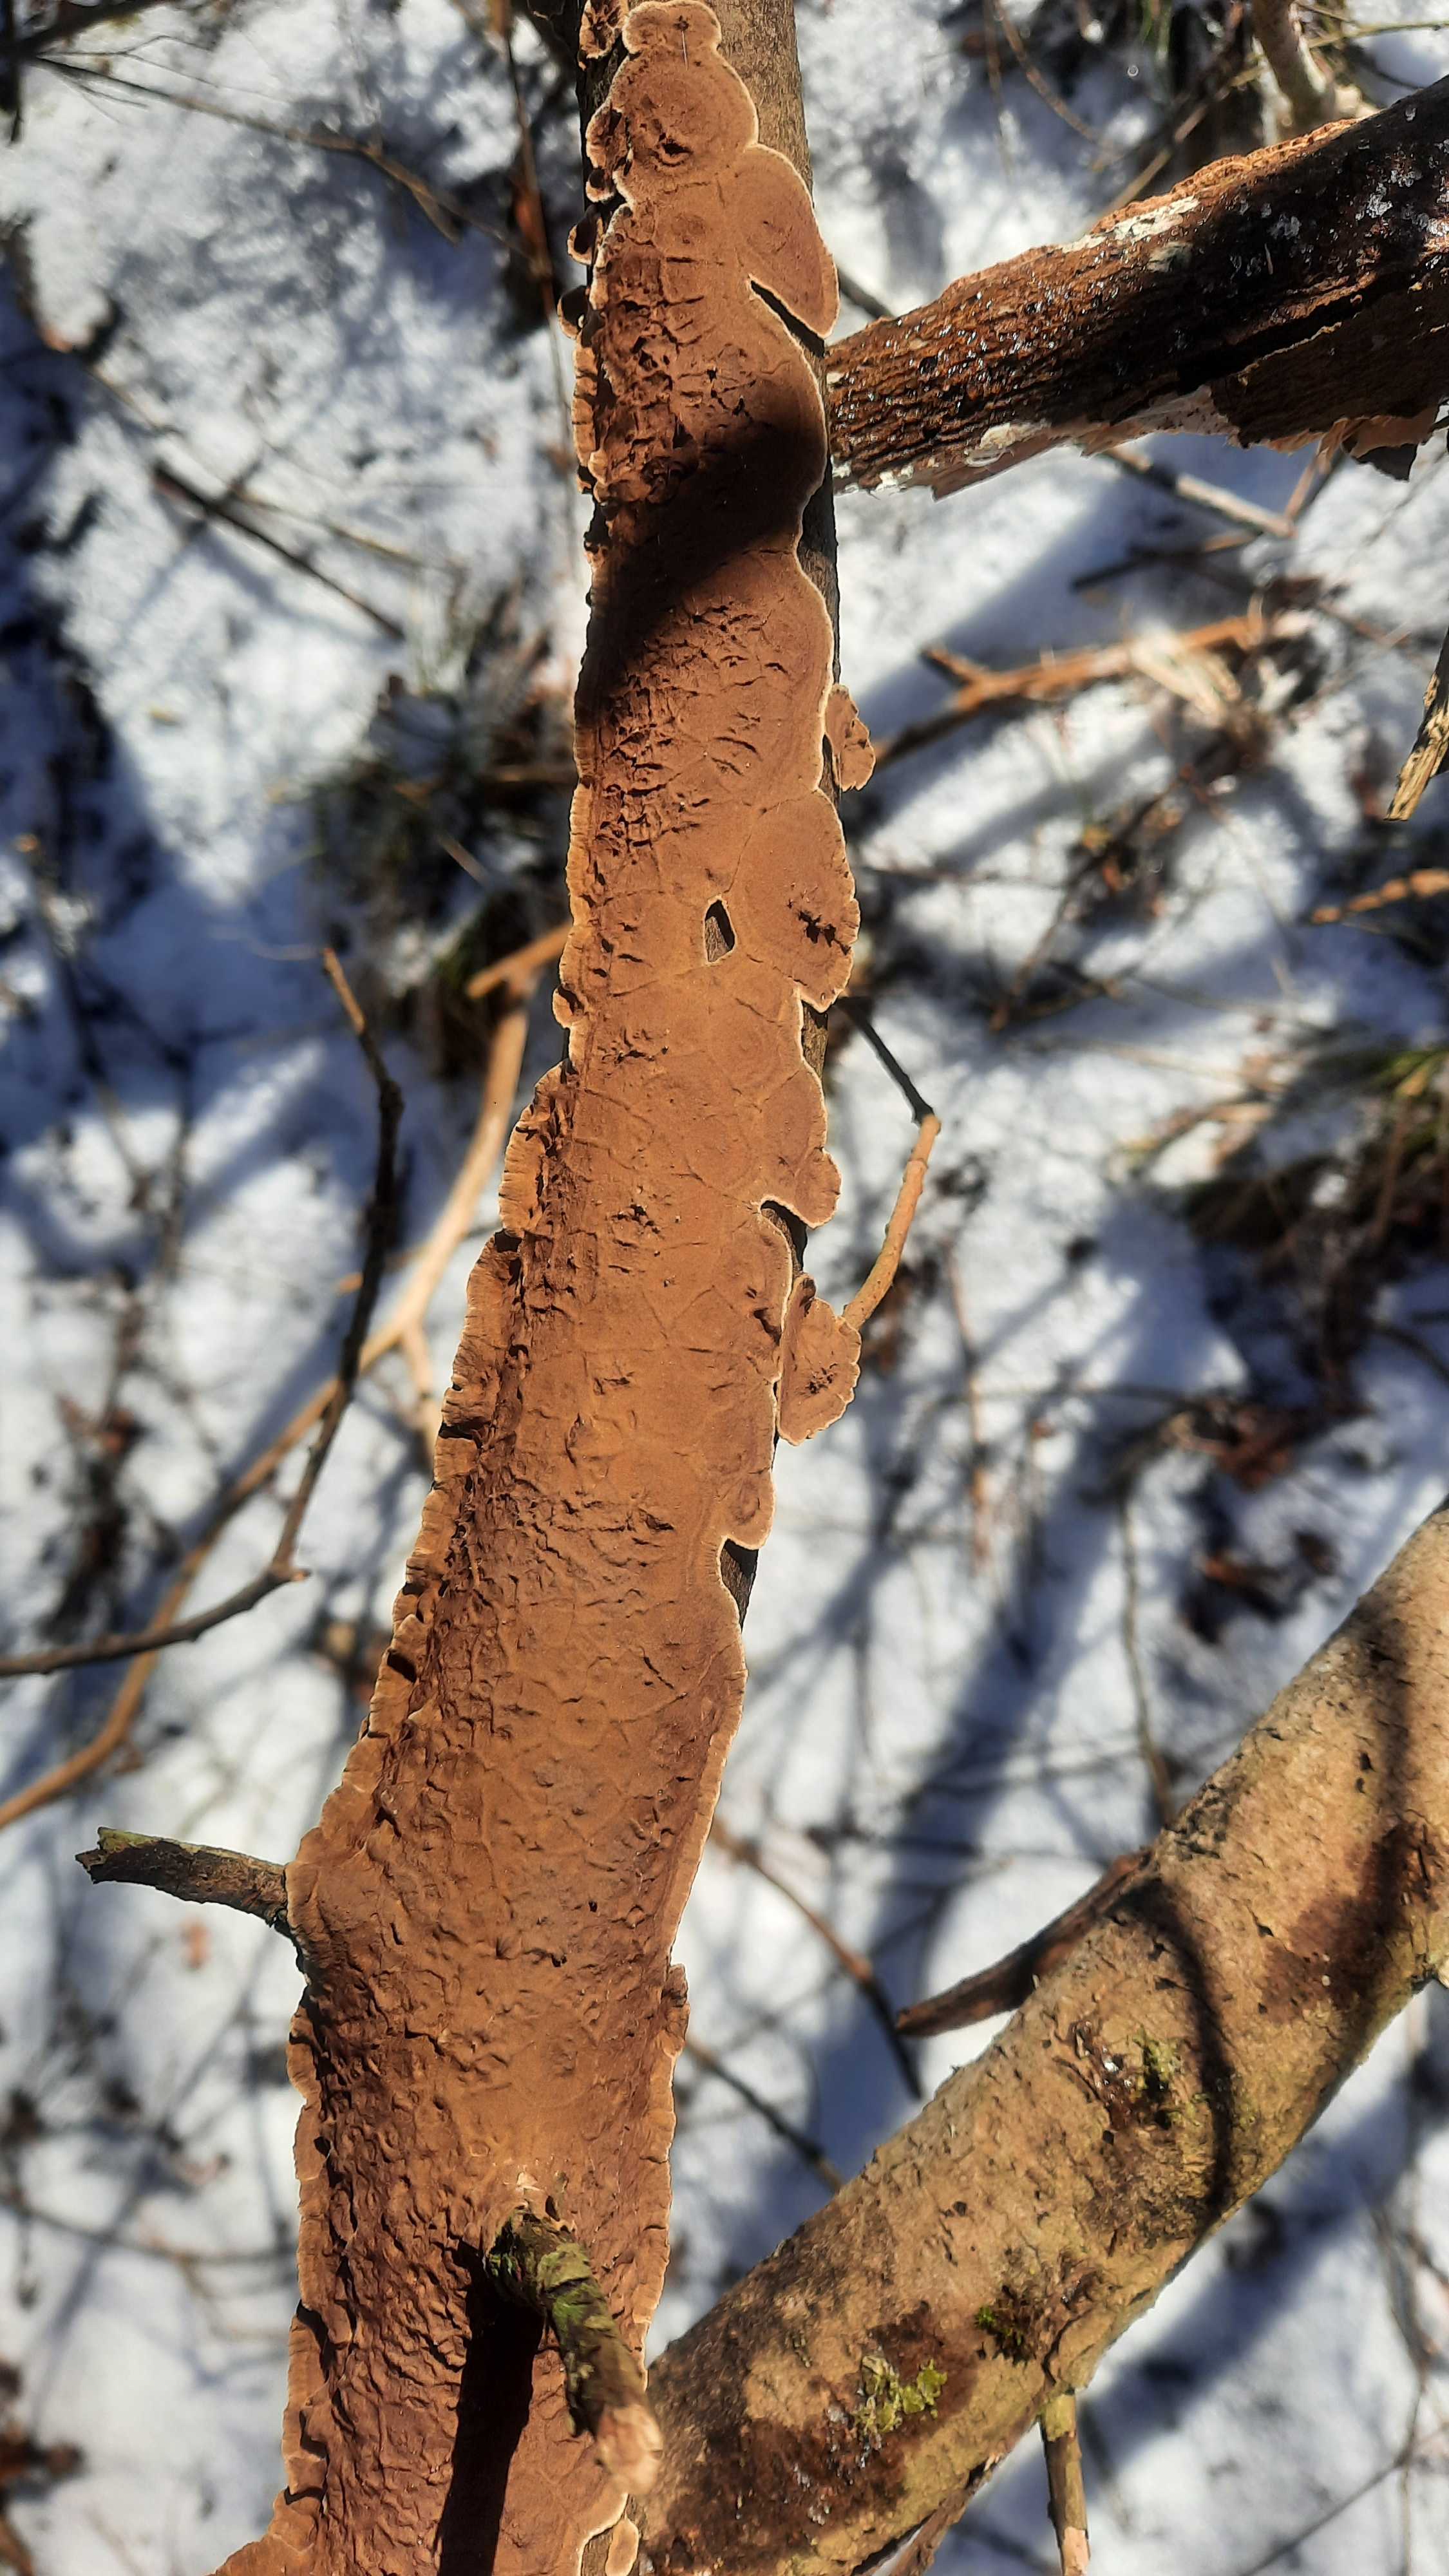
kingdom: Fungi
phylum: Basidiomycota
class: Agaricomycetes
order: Hymenochaetales
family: Hymenochaetaceae
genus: Hydnoporia
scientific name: Hydnoporia tabacina
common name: tobaksbrun ruslædersvamp
